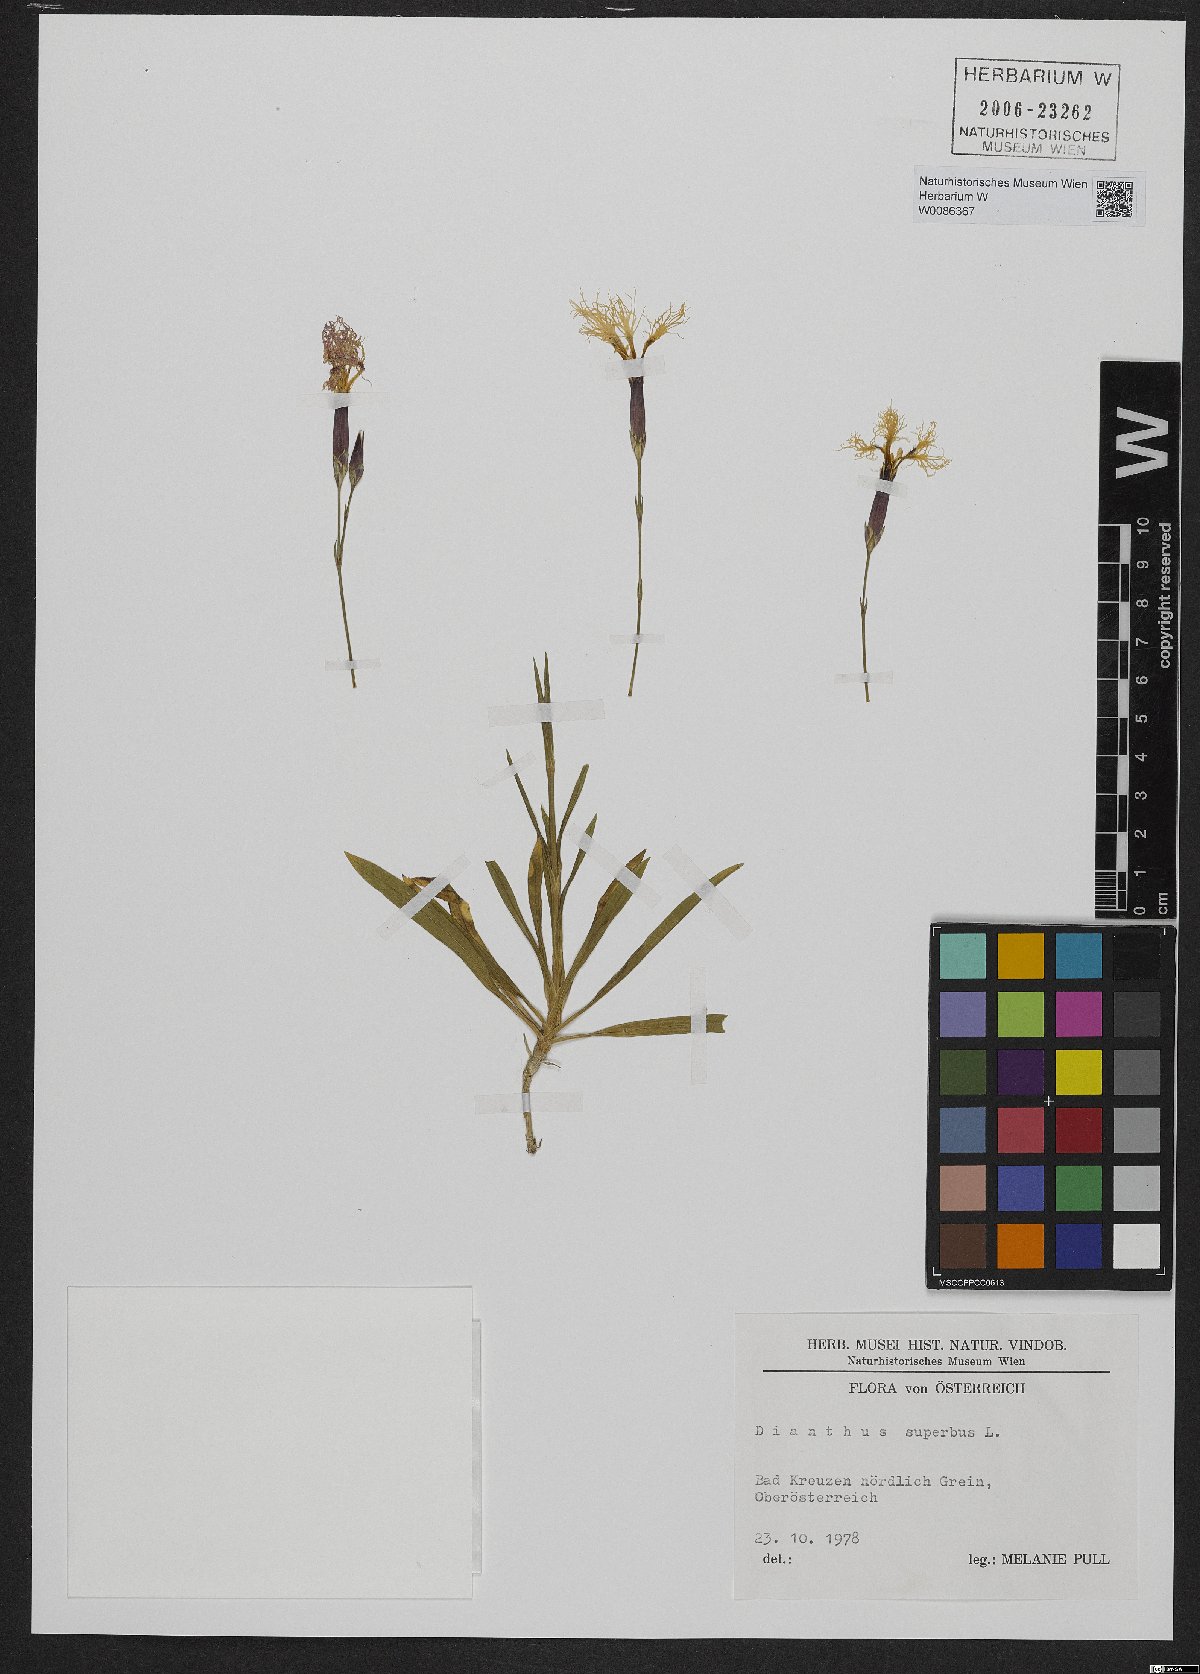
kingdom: Plantae
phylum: Tracheophyta
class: Magnoliopsida
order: Caryophyllales
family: Caryophyllaceae
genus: Dianthus
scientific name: Dianthus superbus
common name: Fringed pink
